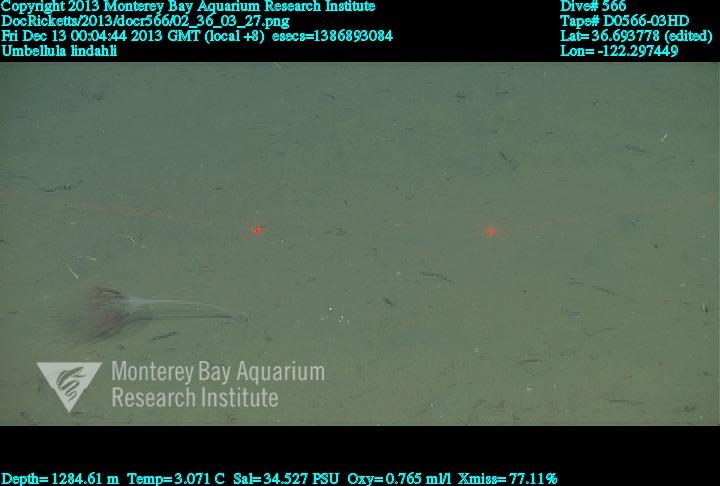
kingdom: Animalia
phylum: Cnidaria
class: Anthozoa
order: Scleralcyonacea
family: Umbellulidae
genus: Umbellula
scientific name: Umbellula lindahli
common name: Lindahl's droopy sea pen
